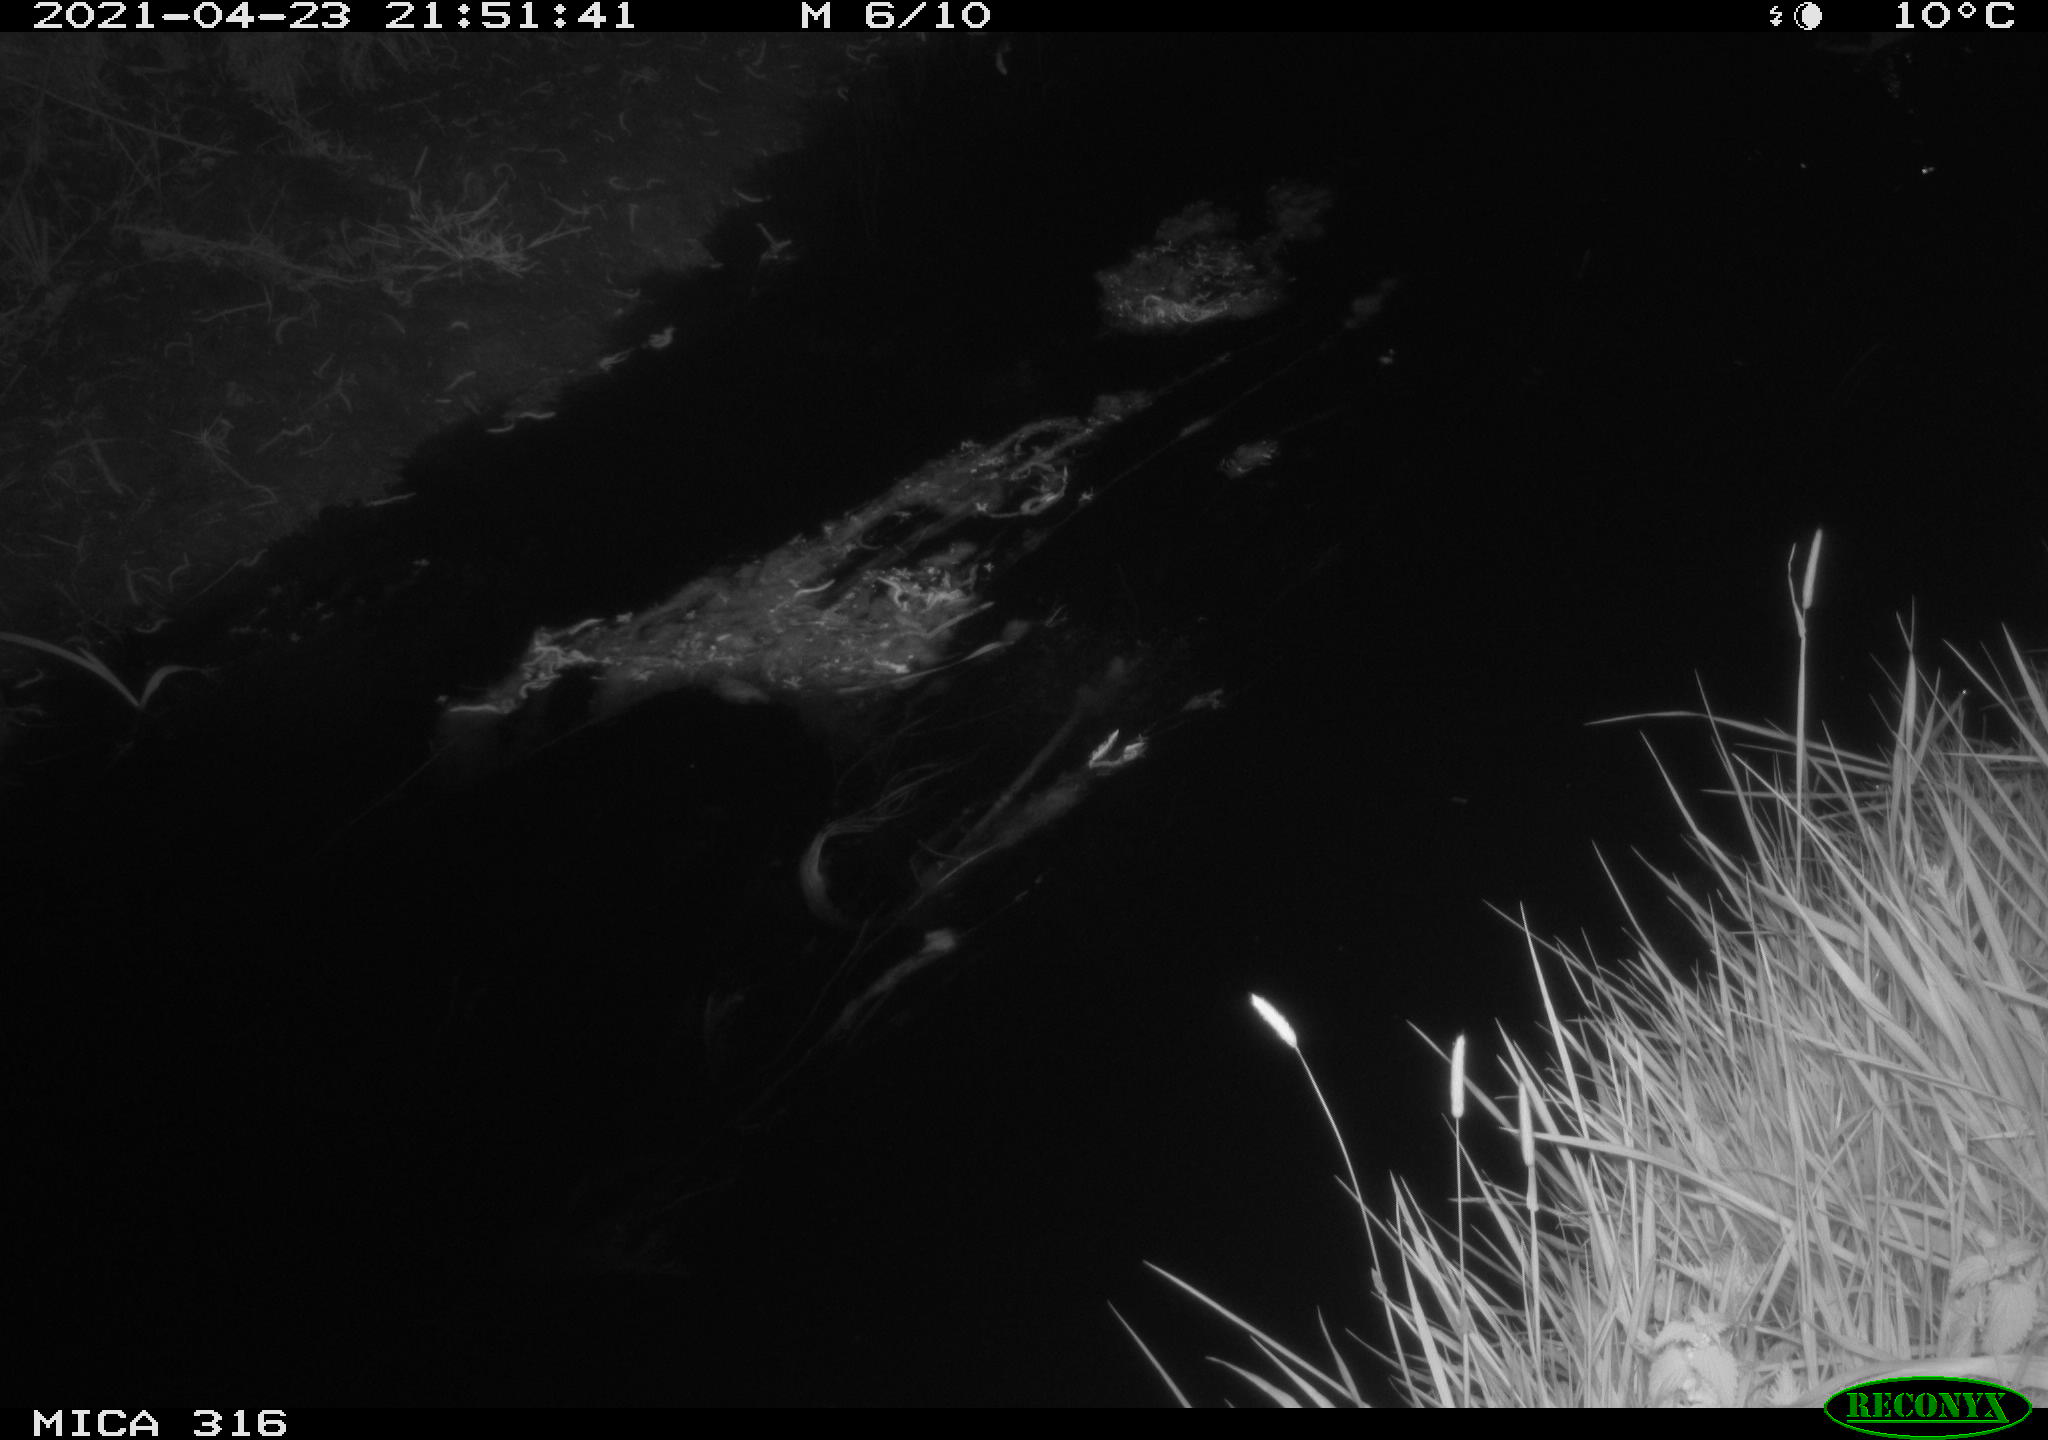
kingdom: Animalia
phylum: Chordata
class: Aves
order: Anseriformes
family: Anatidae
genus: Anas
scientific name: Anas platyrhynchos
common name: Mallard
